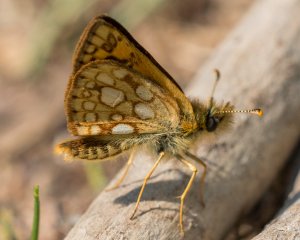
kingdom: Animalia
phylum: Arthropoda
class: Insecta
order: Lepidoptera
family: Hesperiidae
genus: Carterocephalus
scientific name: Carterocephalus palaemon
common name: Chequered Skipper
